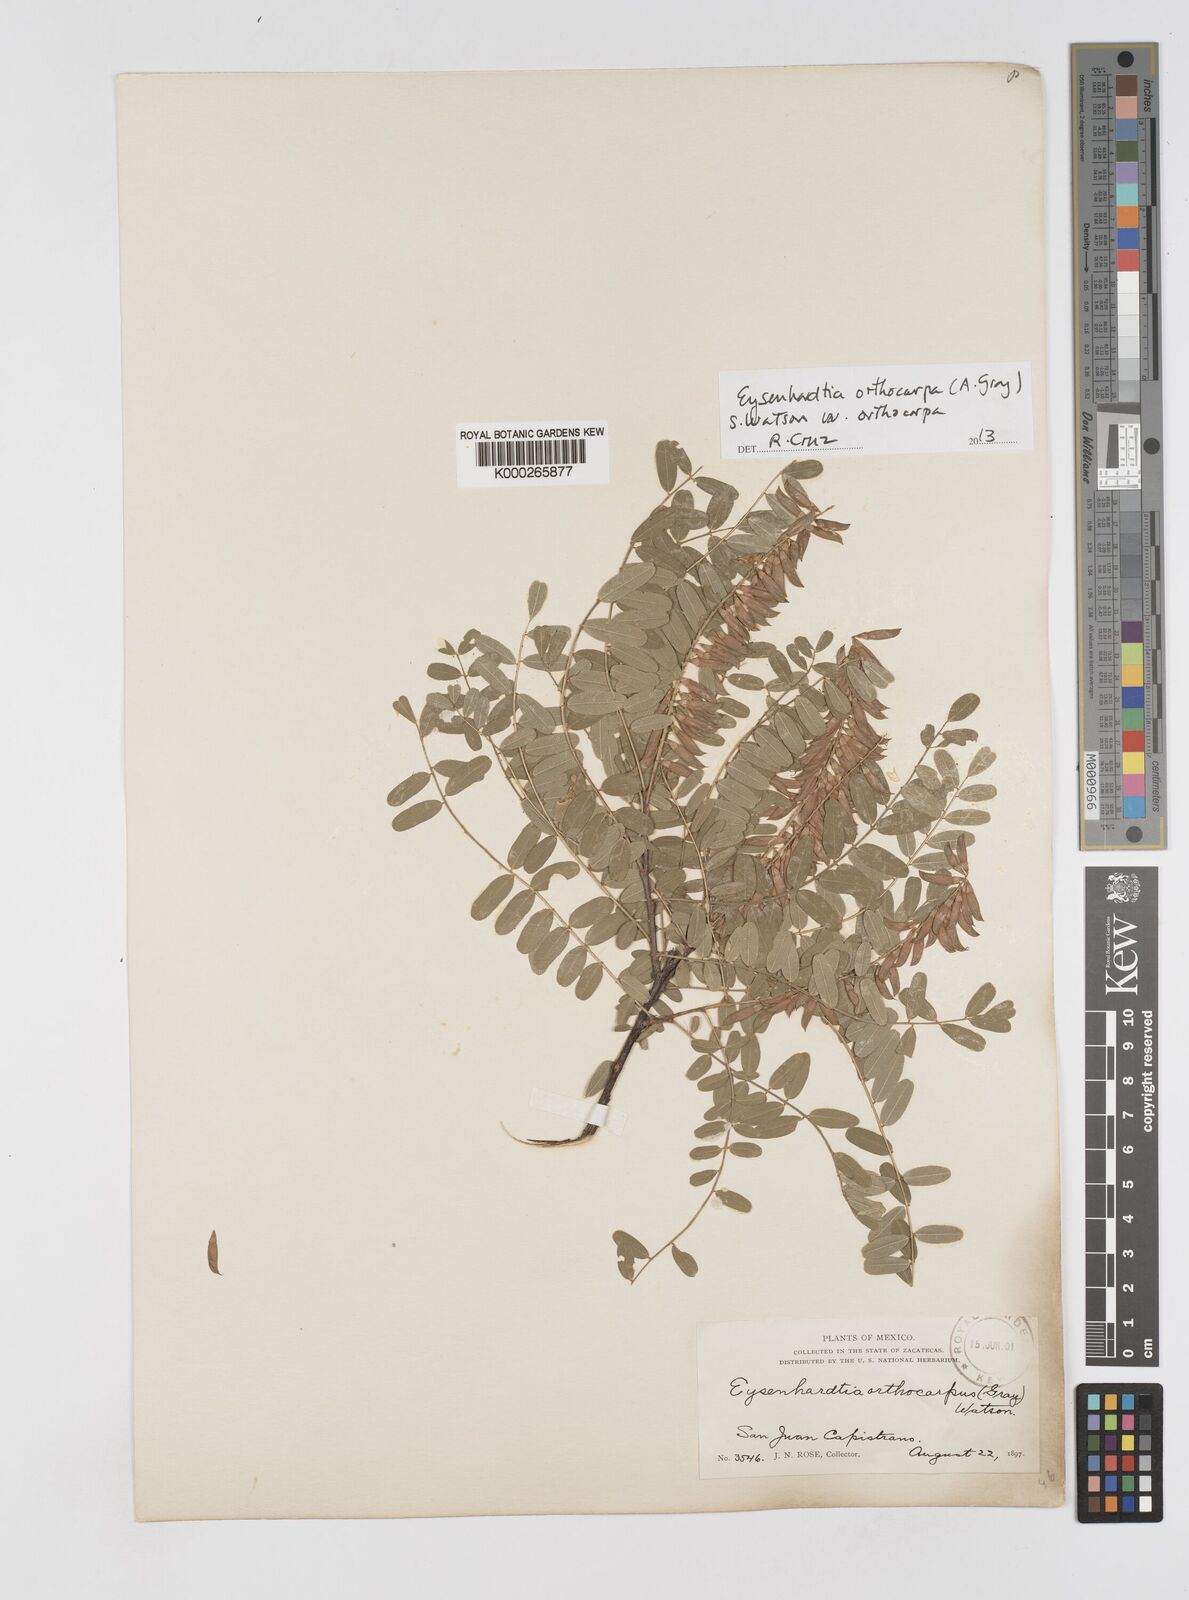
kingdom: Plantae
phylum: Tracheophyta
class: Magnoliopsida
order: Fabales
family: Fabaceae
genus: Eysenhardtia
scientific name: Eysenhardtia orthocarpa
